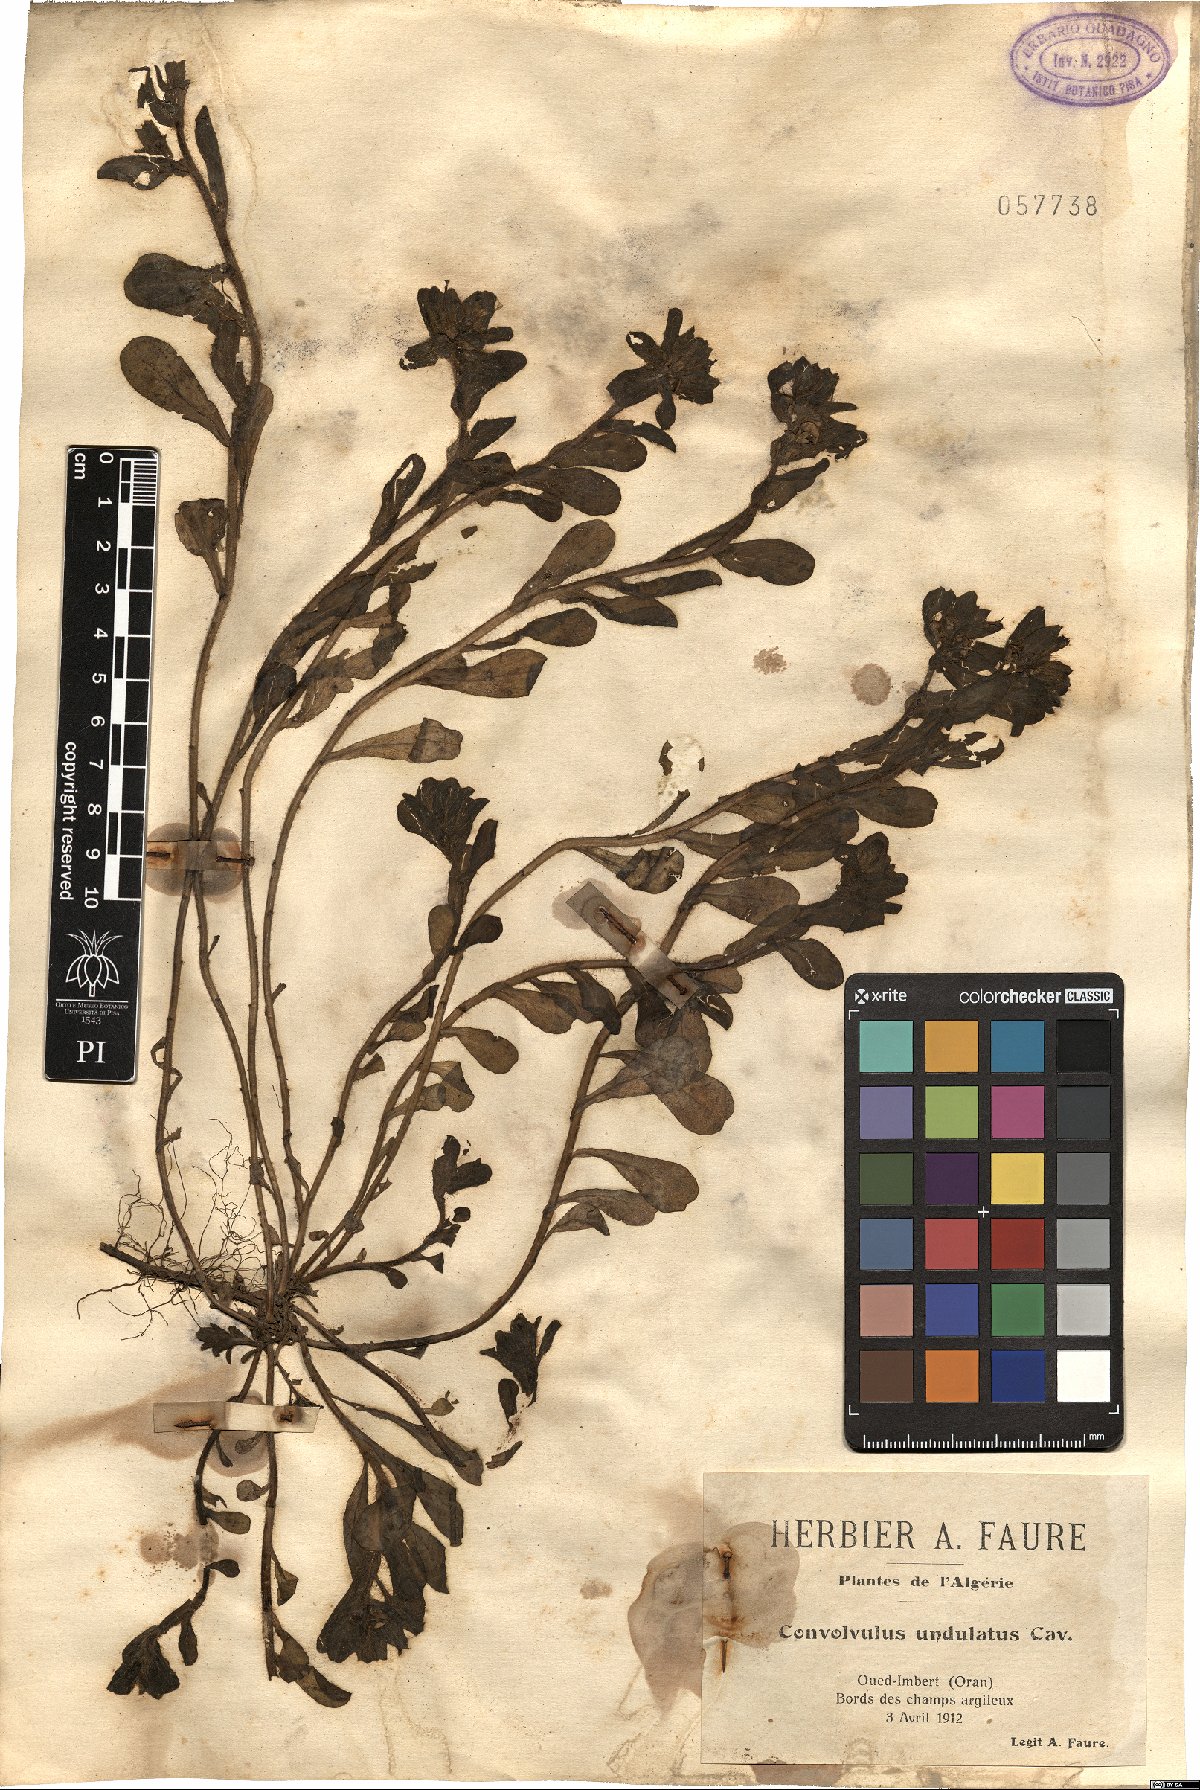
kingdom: Plantae
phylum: Tracheophyta
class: Magnoliopsida
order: Solanales
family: Convolvulaceae
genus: Convolvulus
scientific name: Convolvulus humilis
